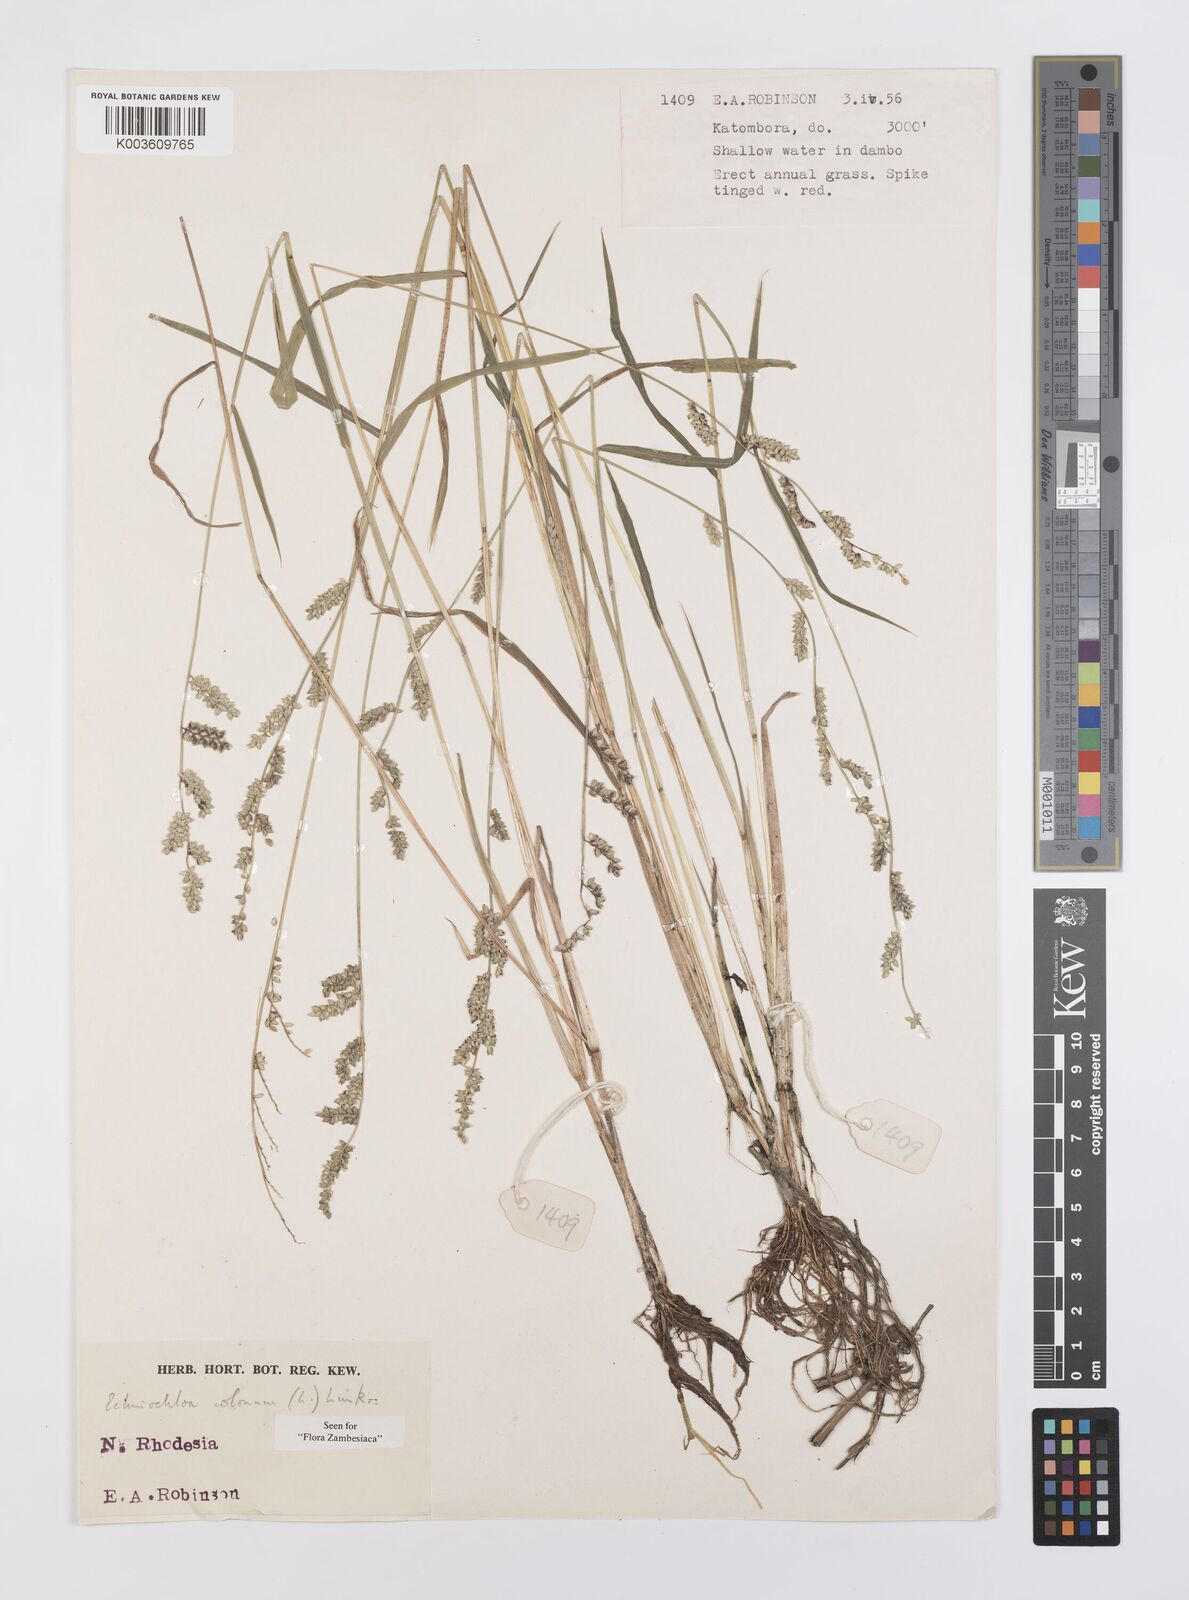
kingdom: Plantae
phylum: Tracheophyta
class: Liliopsida
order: Poales
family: Poaceae
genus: Echinochloa
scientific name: Echinochloa colonum
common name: Jungle rice
